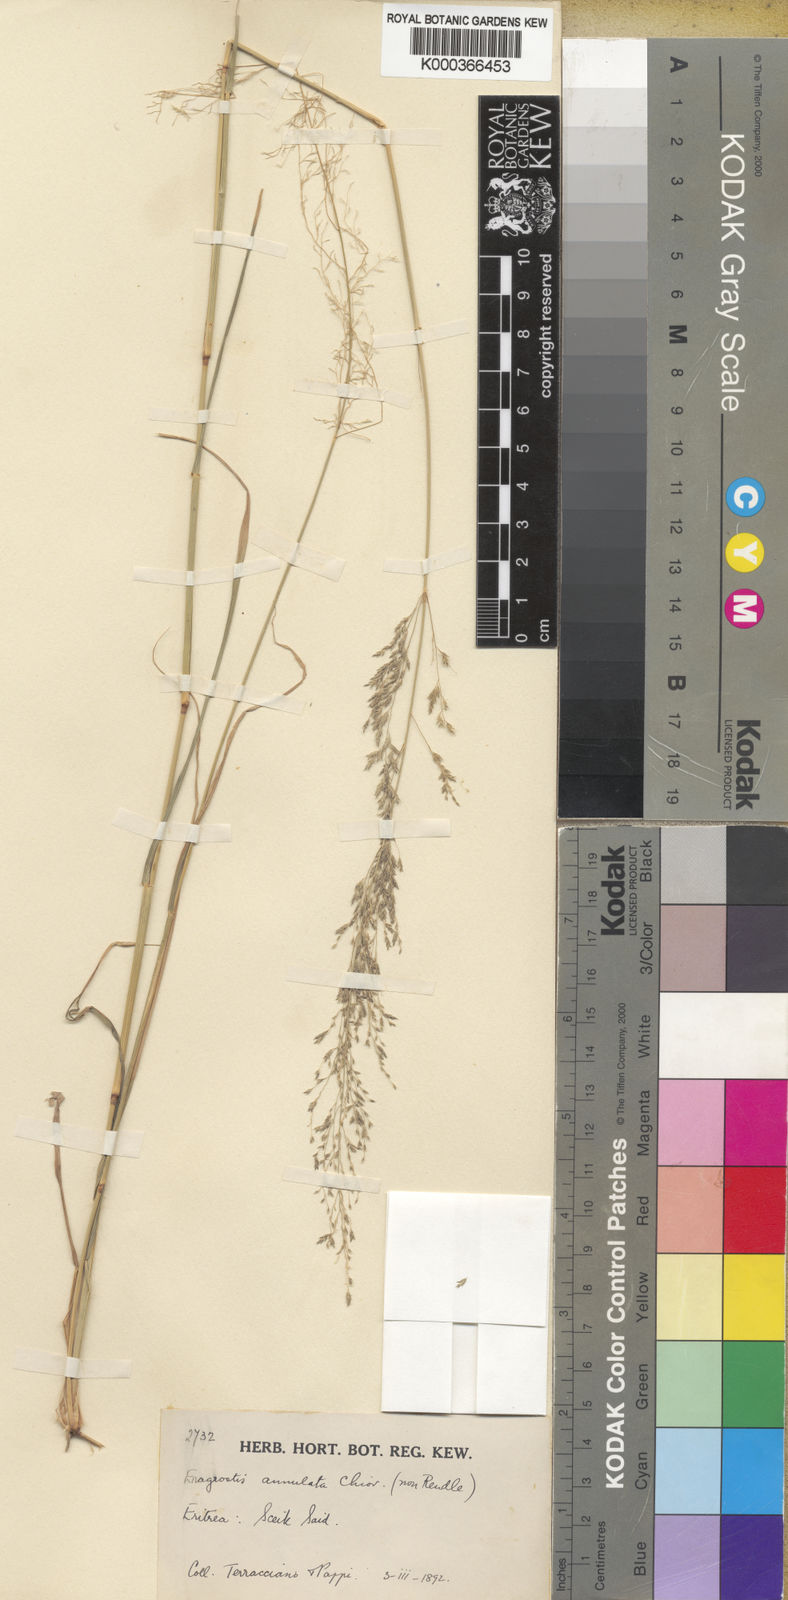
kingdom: Plantae
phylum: Tracheophyta
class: Liliopsida
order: Poales
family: Poaceae
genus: Eragrostis
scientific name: Eragrostis cylindriflora
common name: Cylinderflower lovegrass
